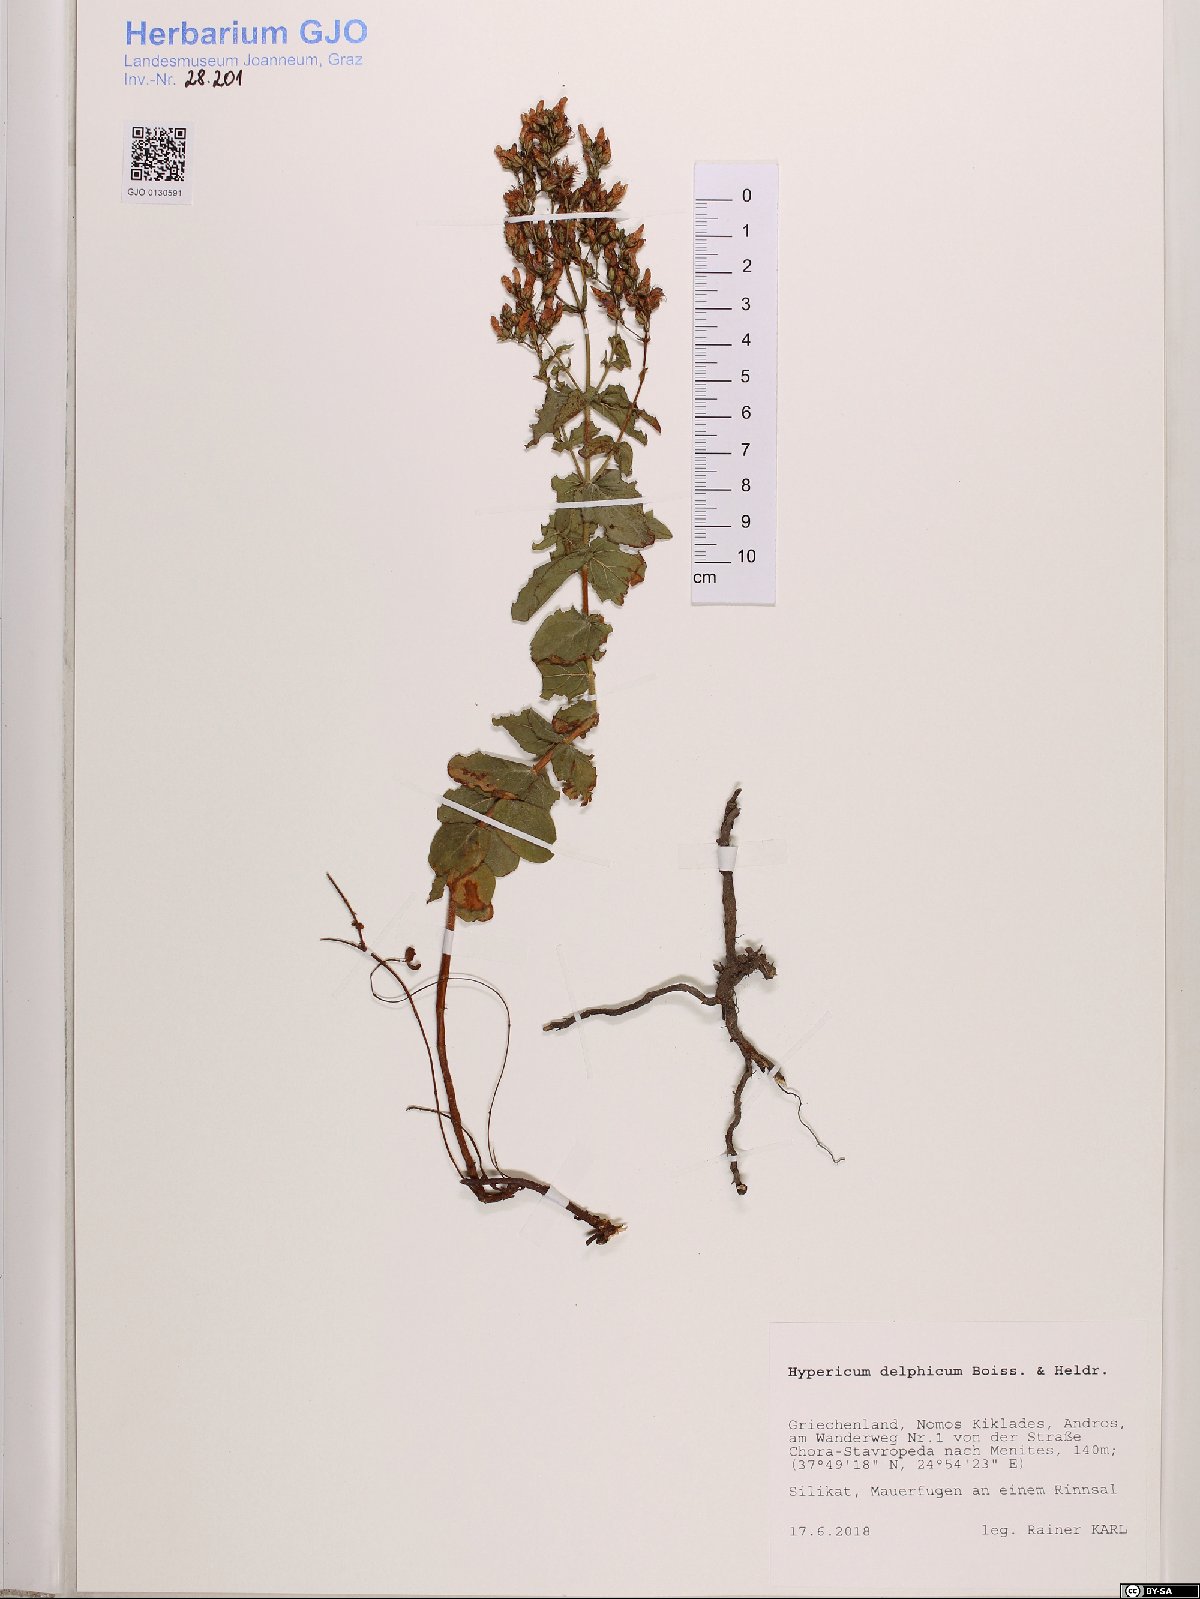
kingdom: Plantae
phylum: Tracheophyta
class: Magnoliopsida
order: Malpighiales
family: Hypericaceae
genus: Hypericum
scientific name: Hypericum delphicum
